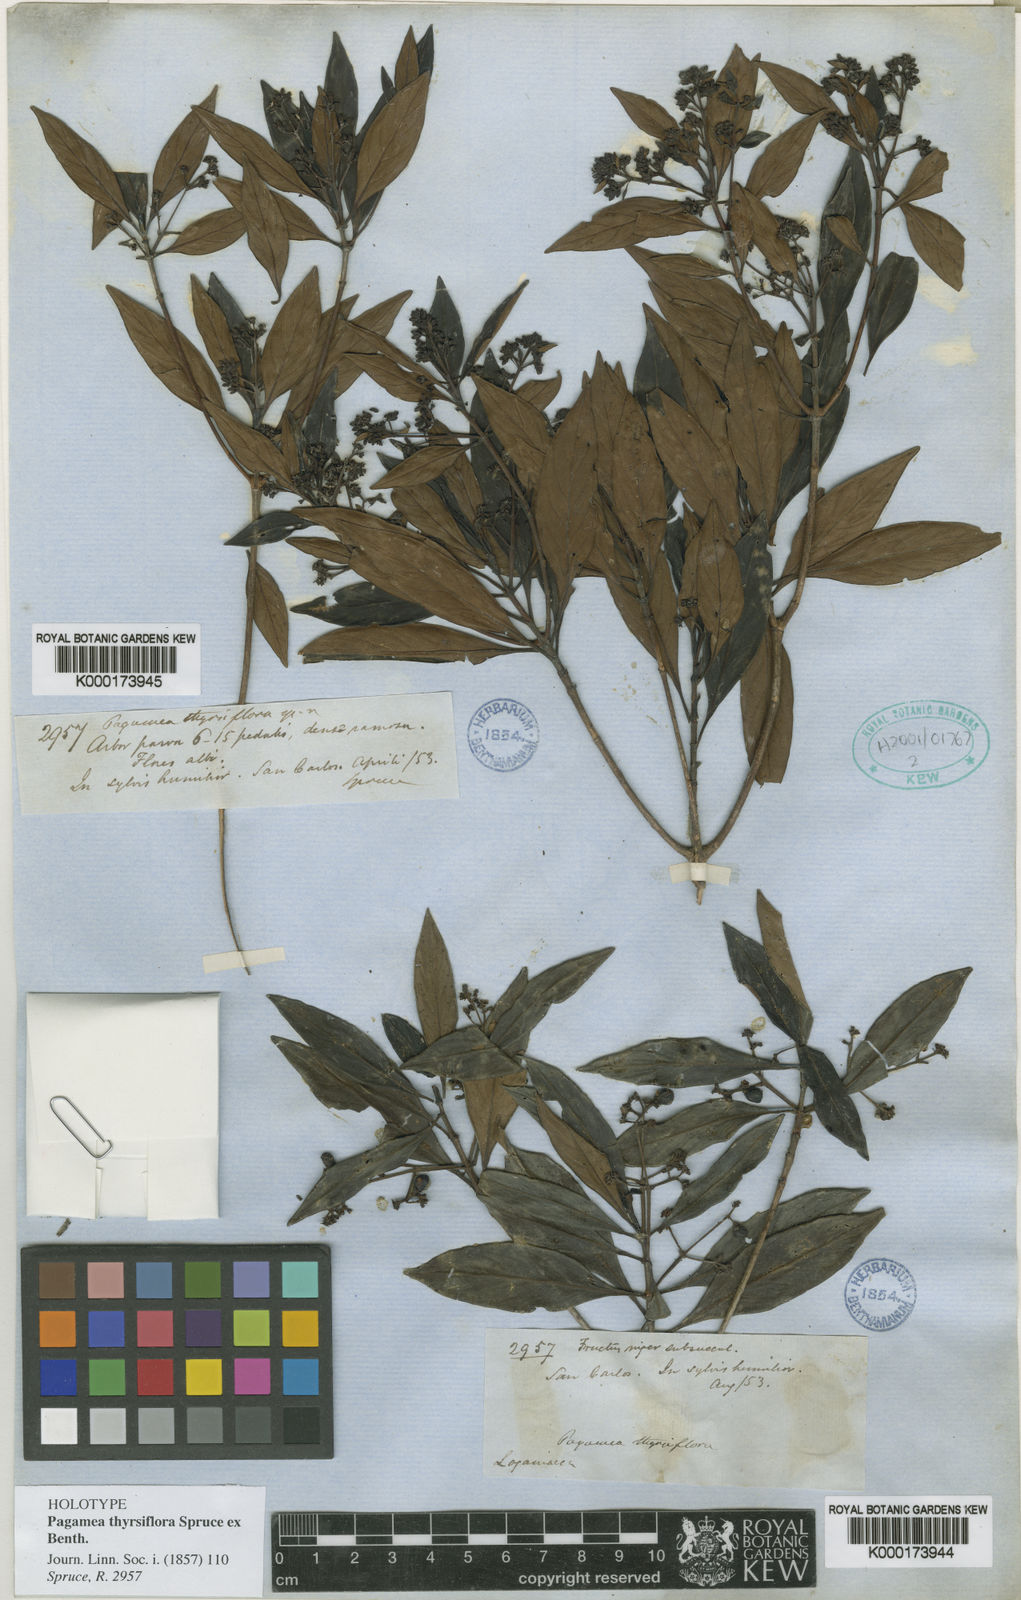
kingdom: Plantae
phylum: Tracheophyta
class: Magnoliopsida
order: Gentianales
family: Rubiaceae
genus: Pagamea
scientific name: Pagamea thyrsiflora
